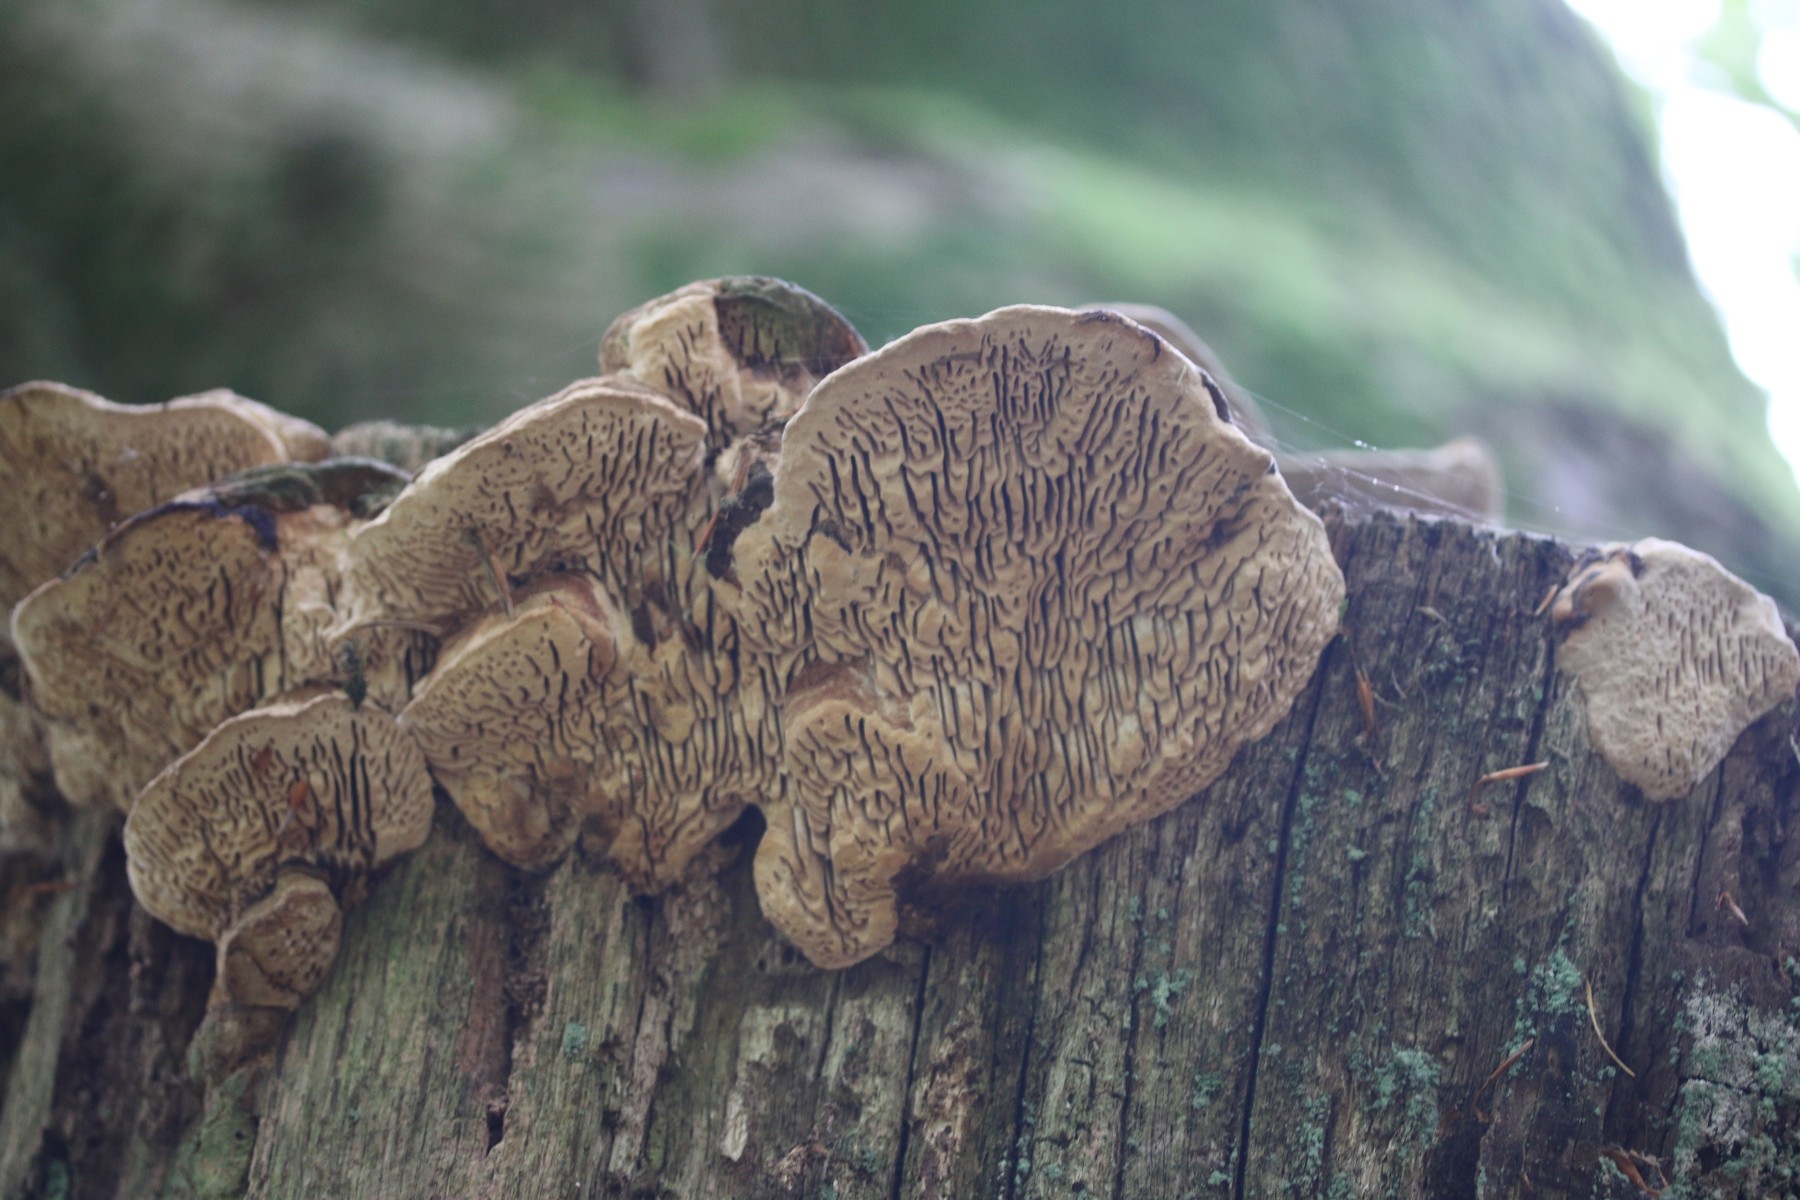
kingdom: Fungi
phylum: Basidiomycota
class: Agaricomycetes
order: Polyporales
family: Fomitopsidaceae
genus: Daedalea
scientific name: Daedalea quercina
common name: ege-labyrintsvamp
